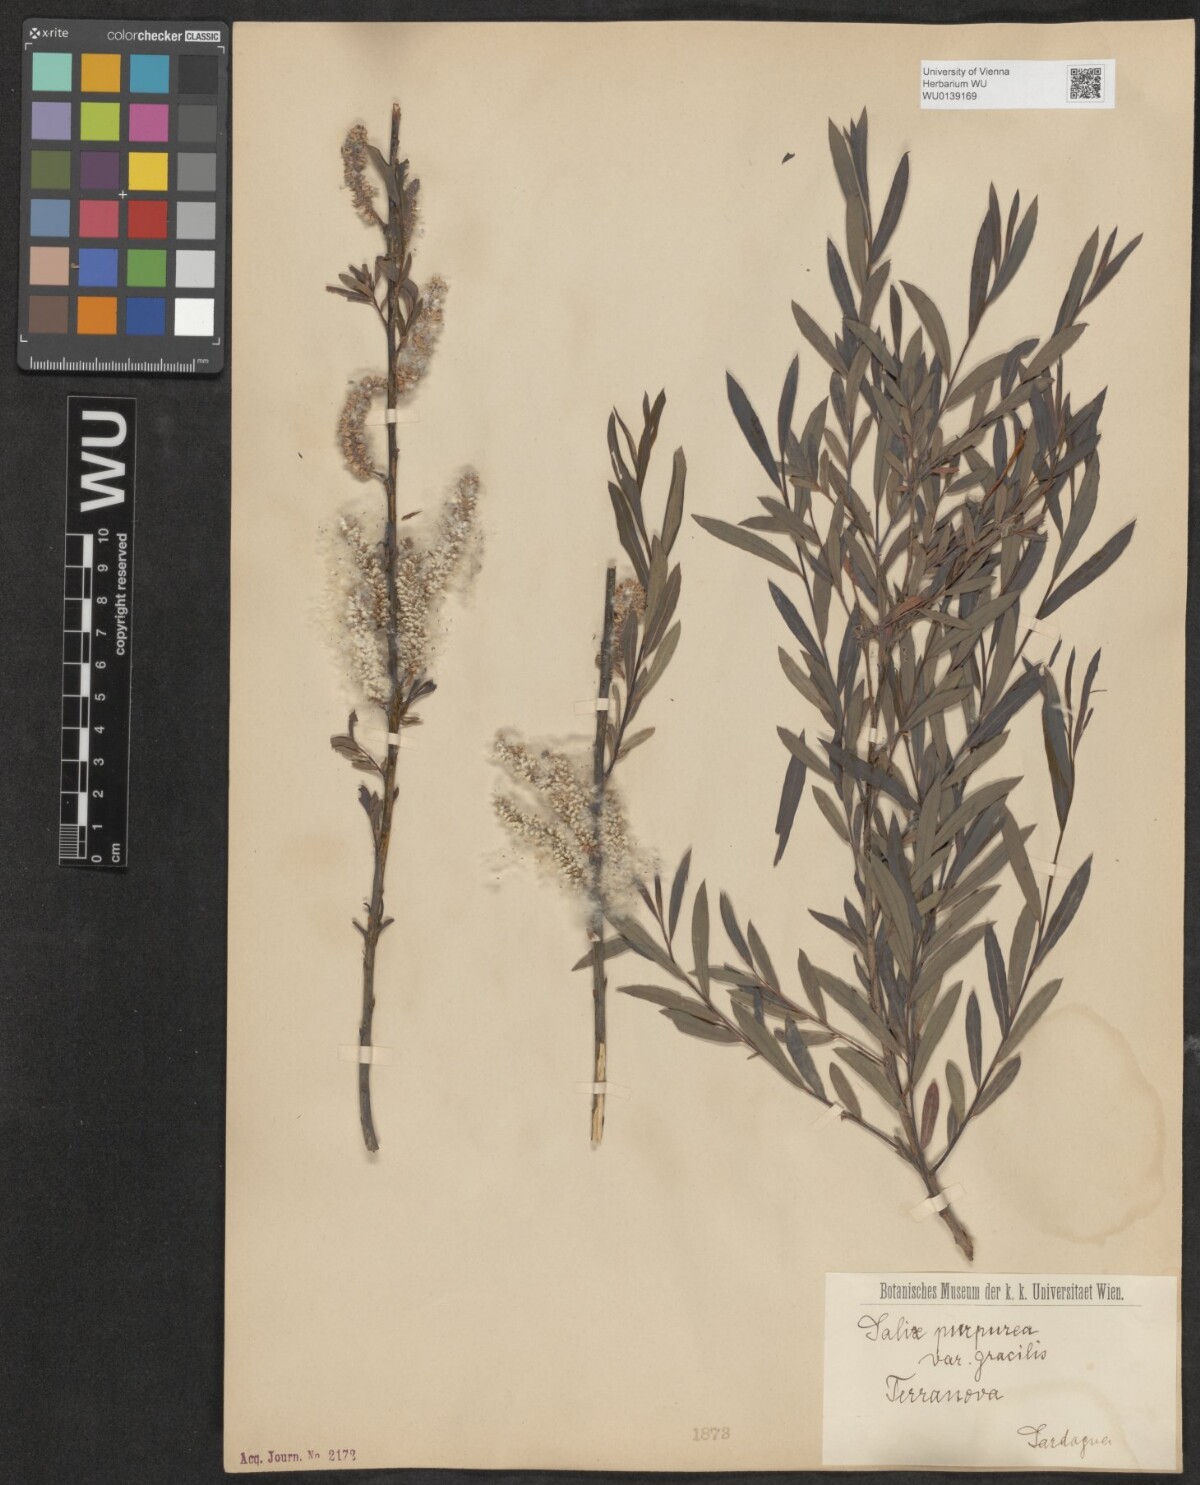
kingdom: Plantae
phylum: Tracheophyta
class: Magnoliopsida
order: Malpighiales
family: Salicaceae
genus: Salix
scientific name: Salix purpurea
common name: Purple willow
